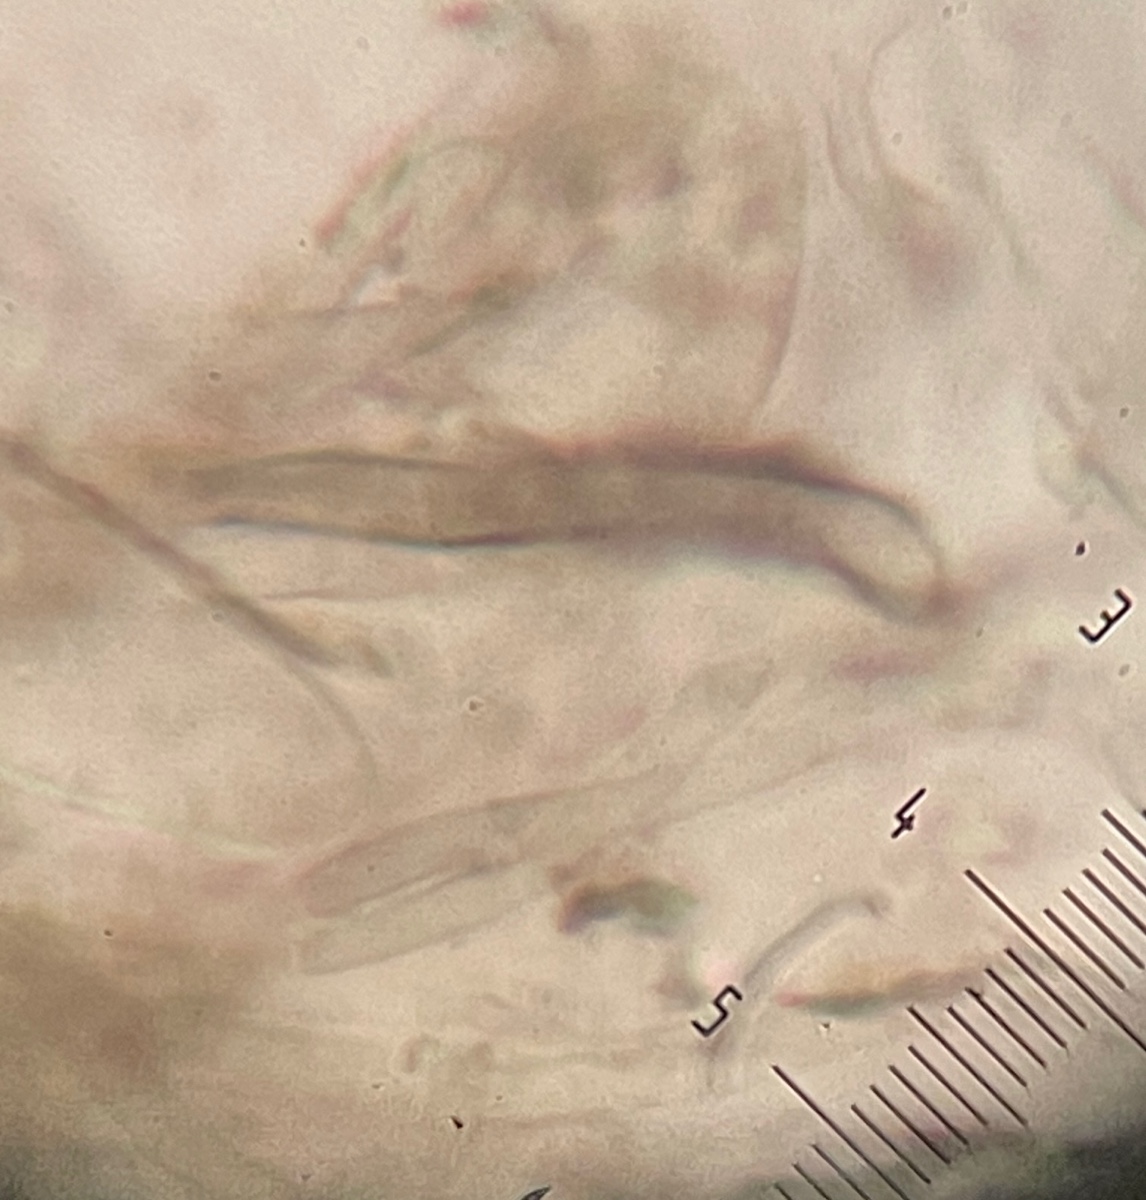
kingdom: Fungi
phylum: Ascomycota
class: Geoglossomycetes
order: Geoglossales
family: Geoglossaceae
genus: Hemileucoglossum
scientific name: Hemileucoglossum elongatum
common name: småsporet jordtunge
